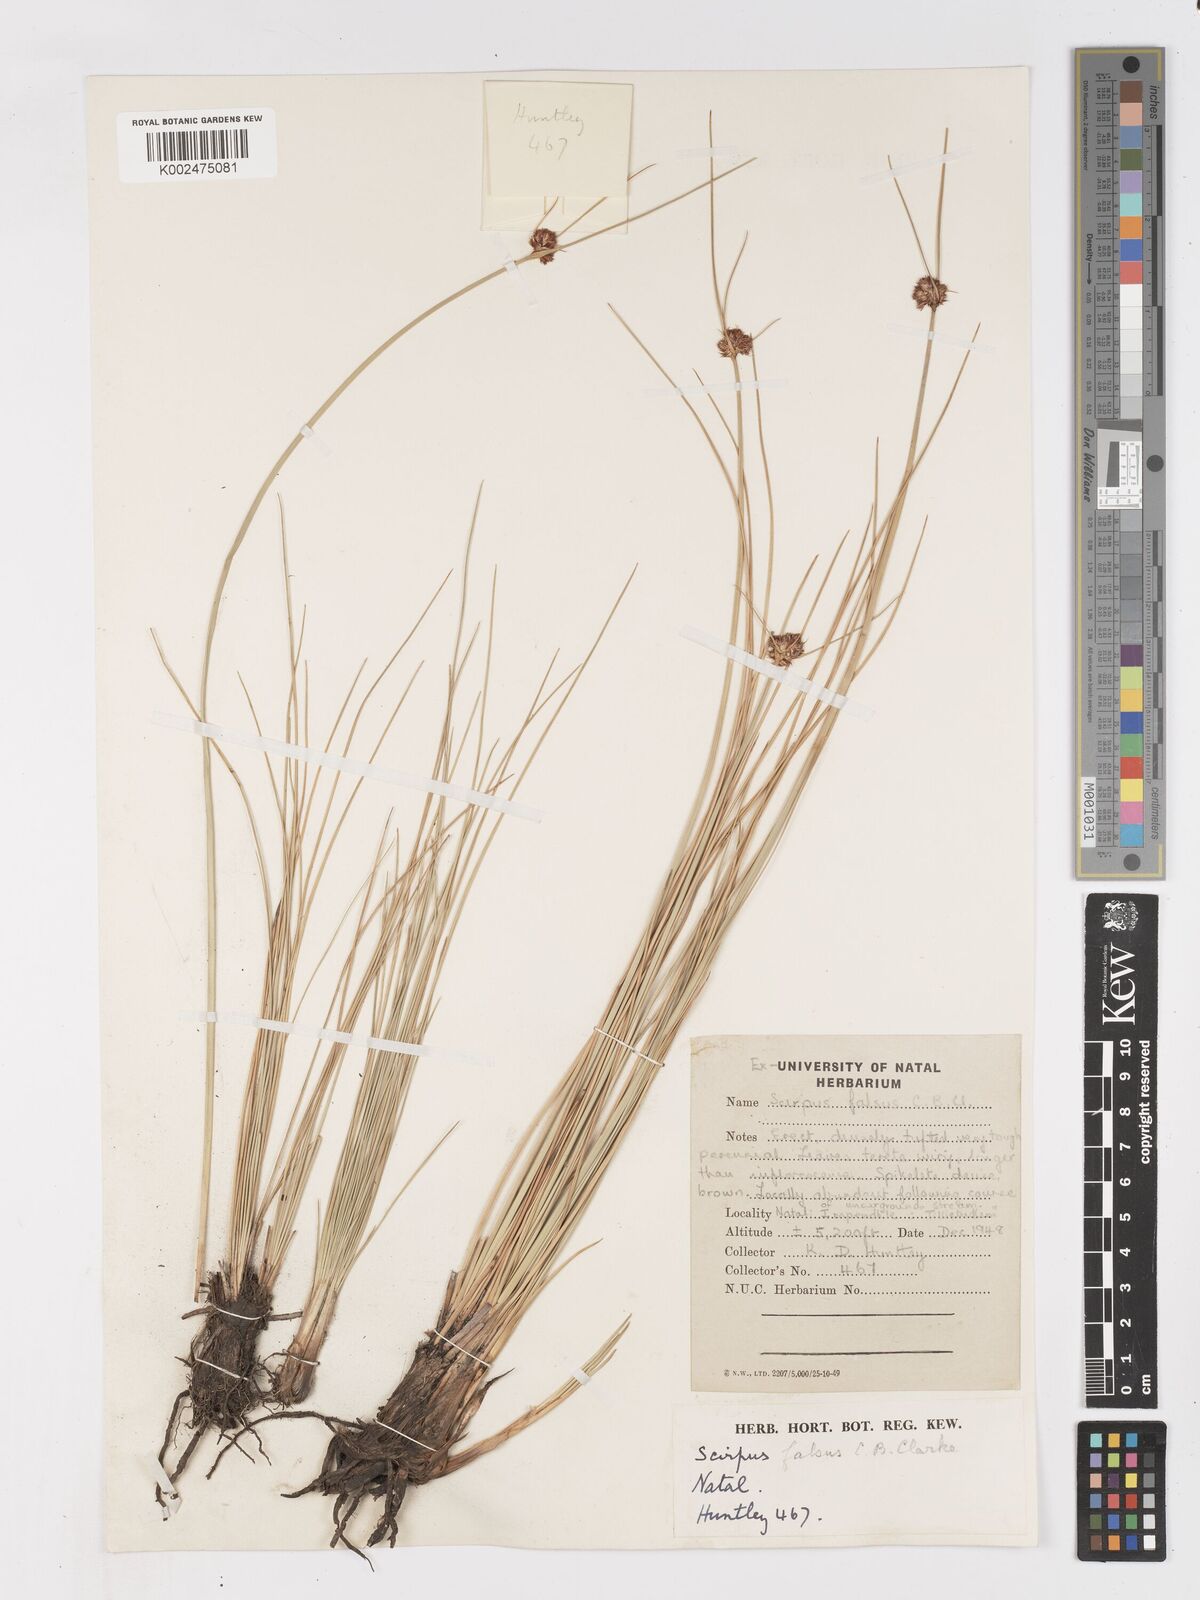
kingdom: Plantae
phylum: Tracheophyta
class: Liliopsida
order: Poales
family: Cyperaceae
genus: Ficinia
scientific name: Ficinia
